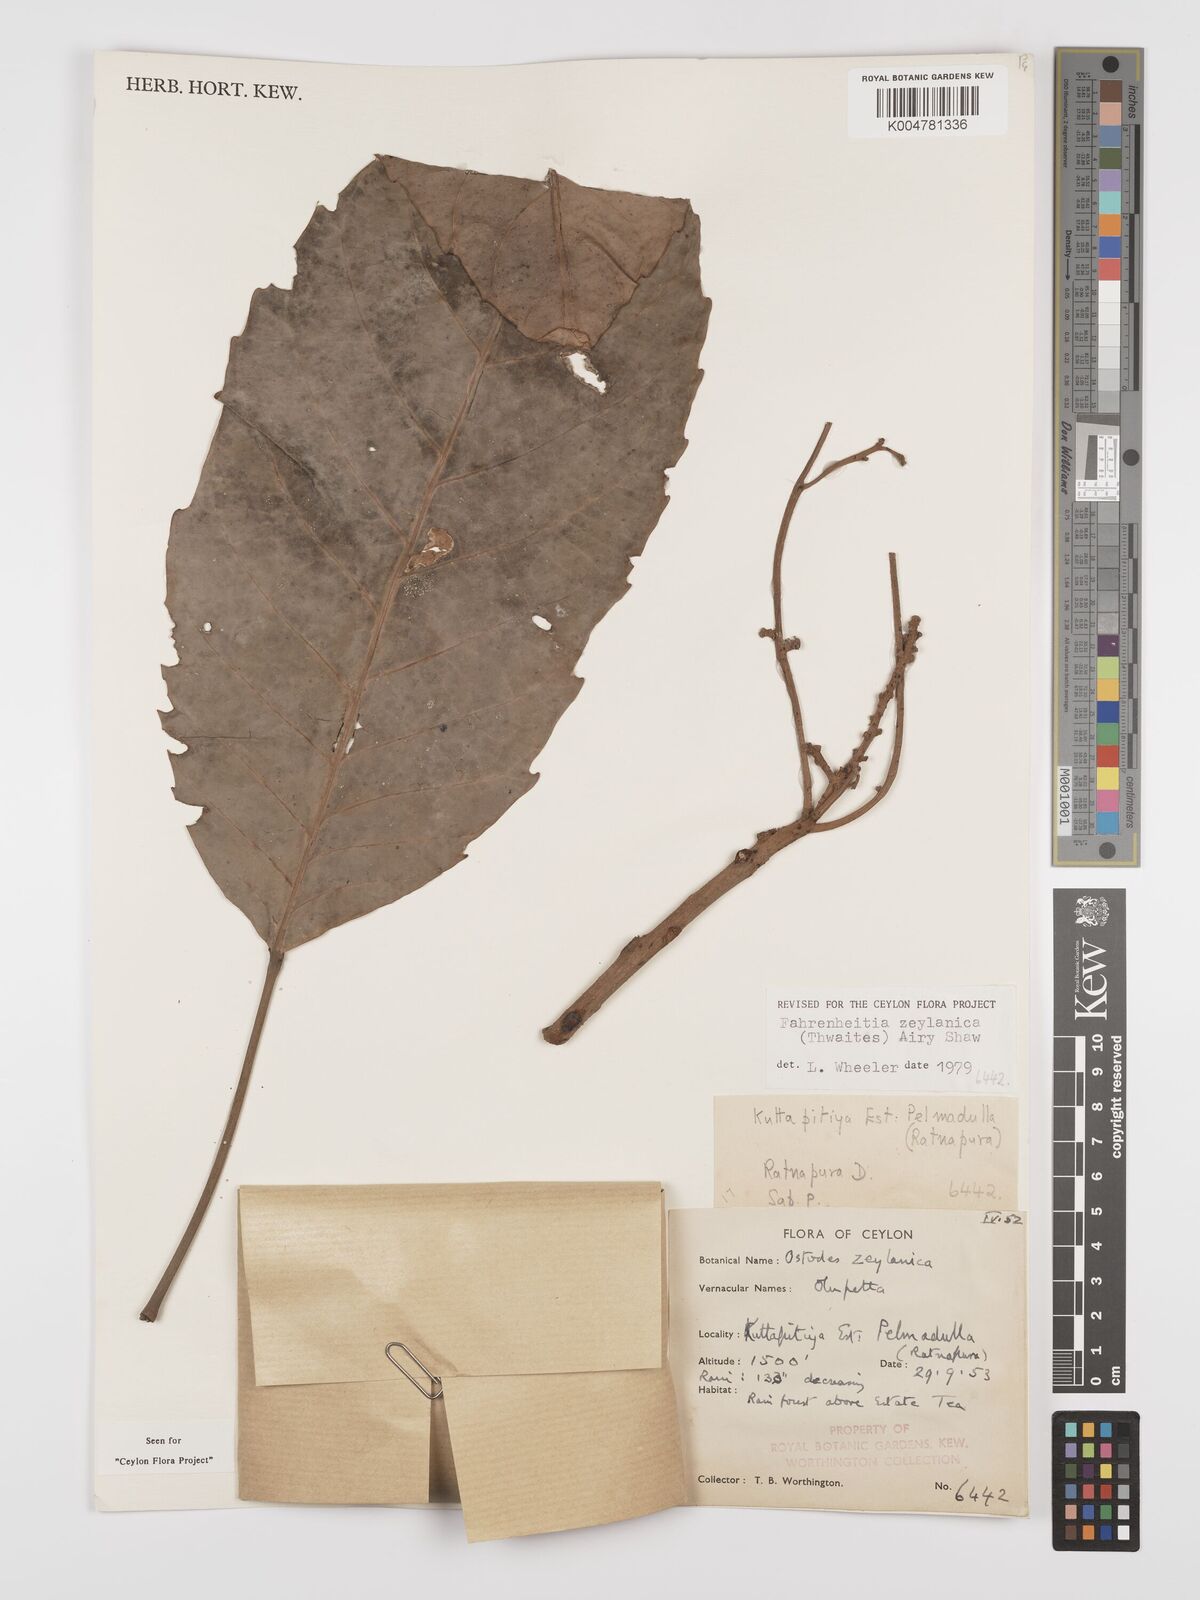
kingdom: Plantae
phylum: Tracheophyta
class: Magnoliopsida
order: Malpighiales
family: Euphorbiaceae
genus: Paracroton
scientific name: Paracroton zeylanicus
